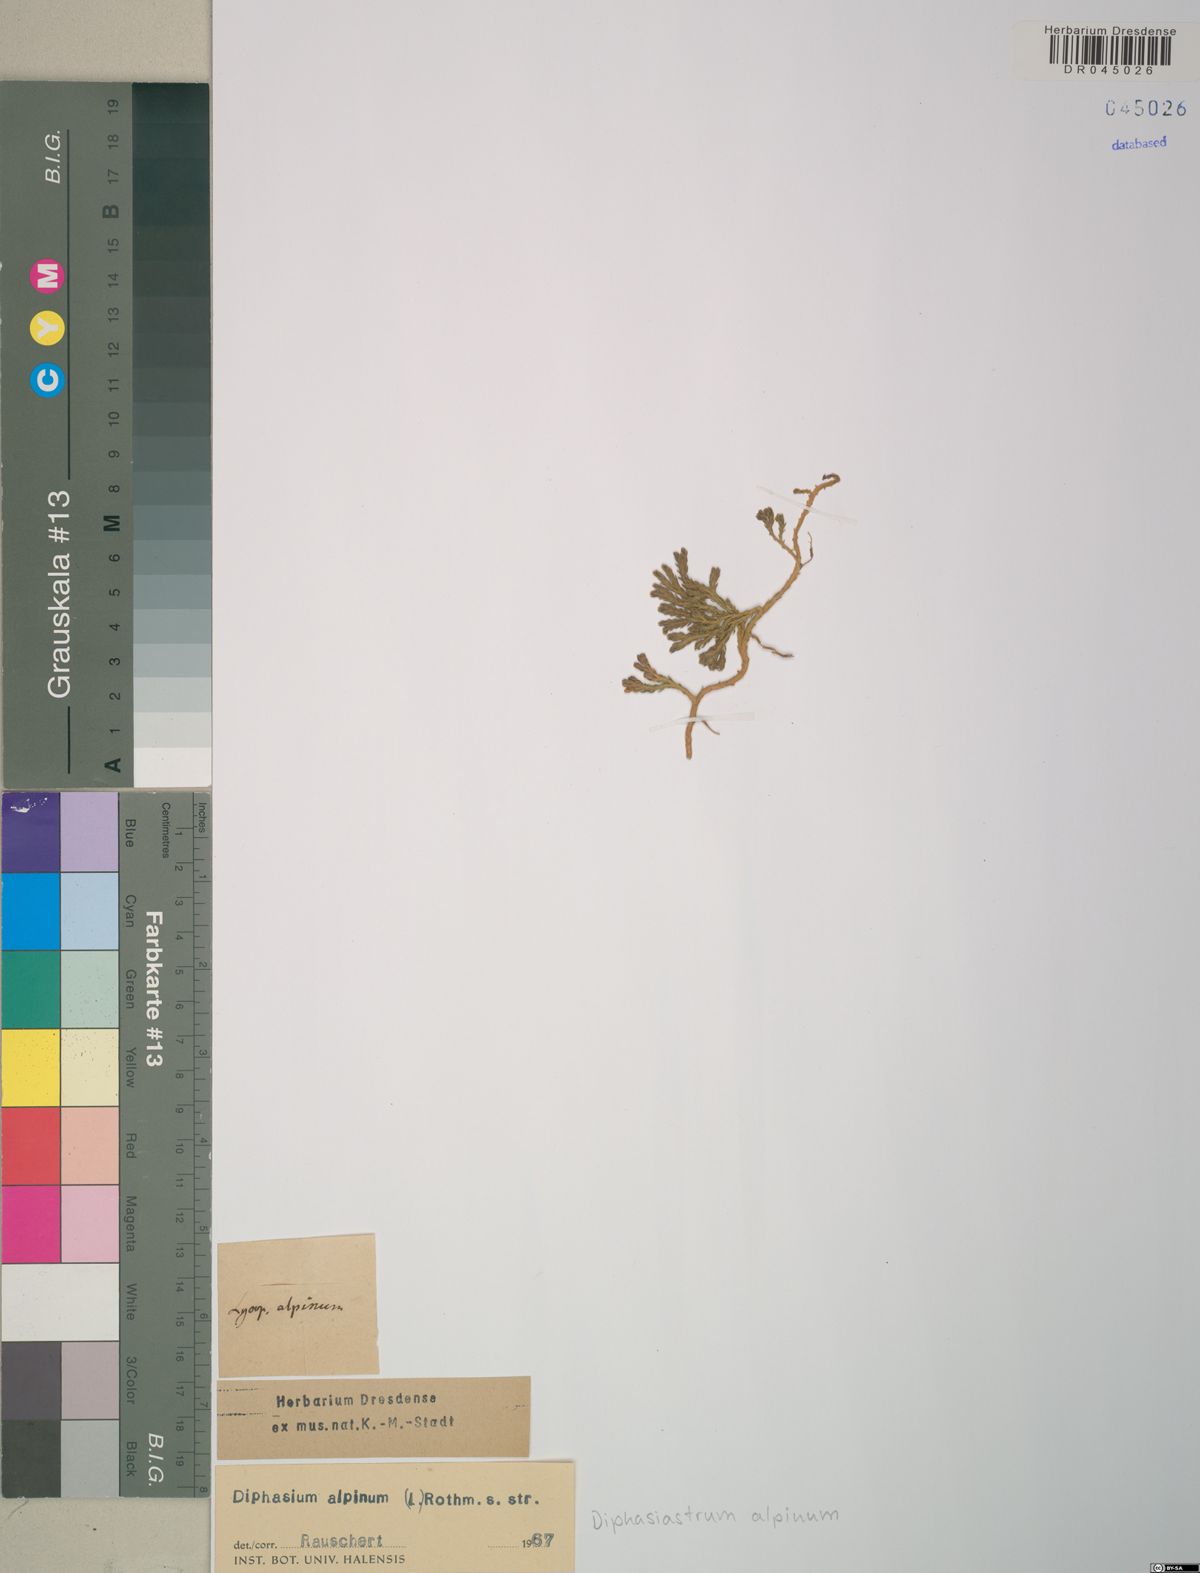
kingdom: Plantae
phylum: Tracheophyta
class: Lycopodiopsida
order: Lycopodiales
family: Lycopodiaceae
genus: Diphasiastrum
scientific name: Diphasiastrum alpinum
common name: Alpine clubmoss
